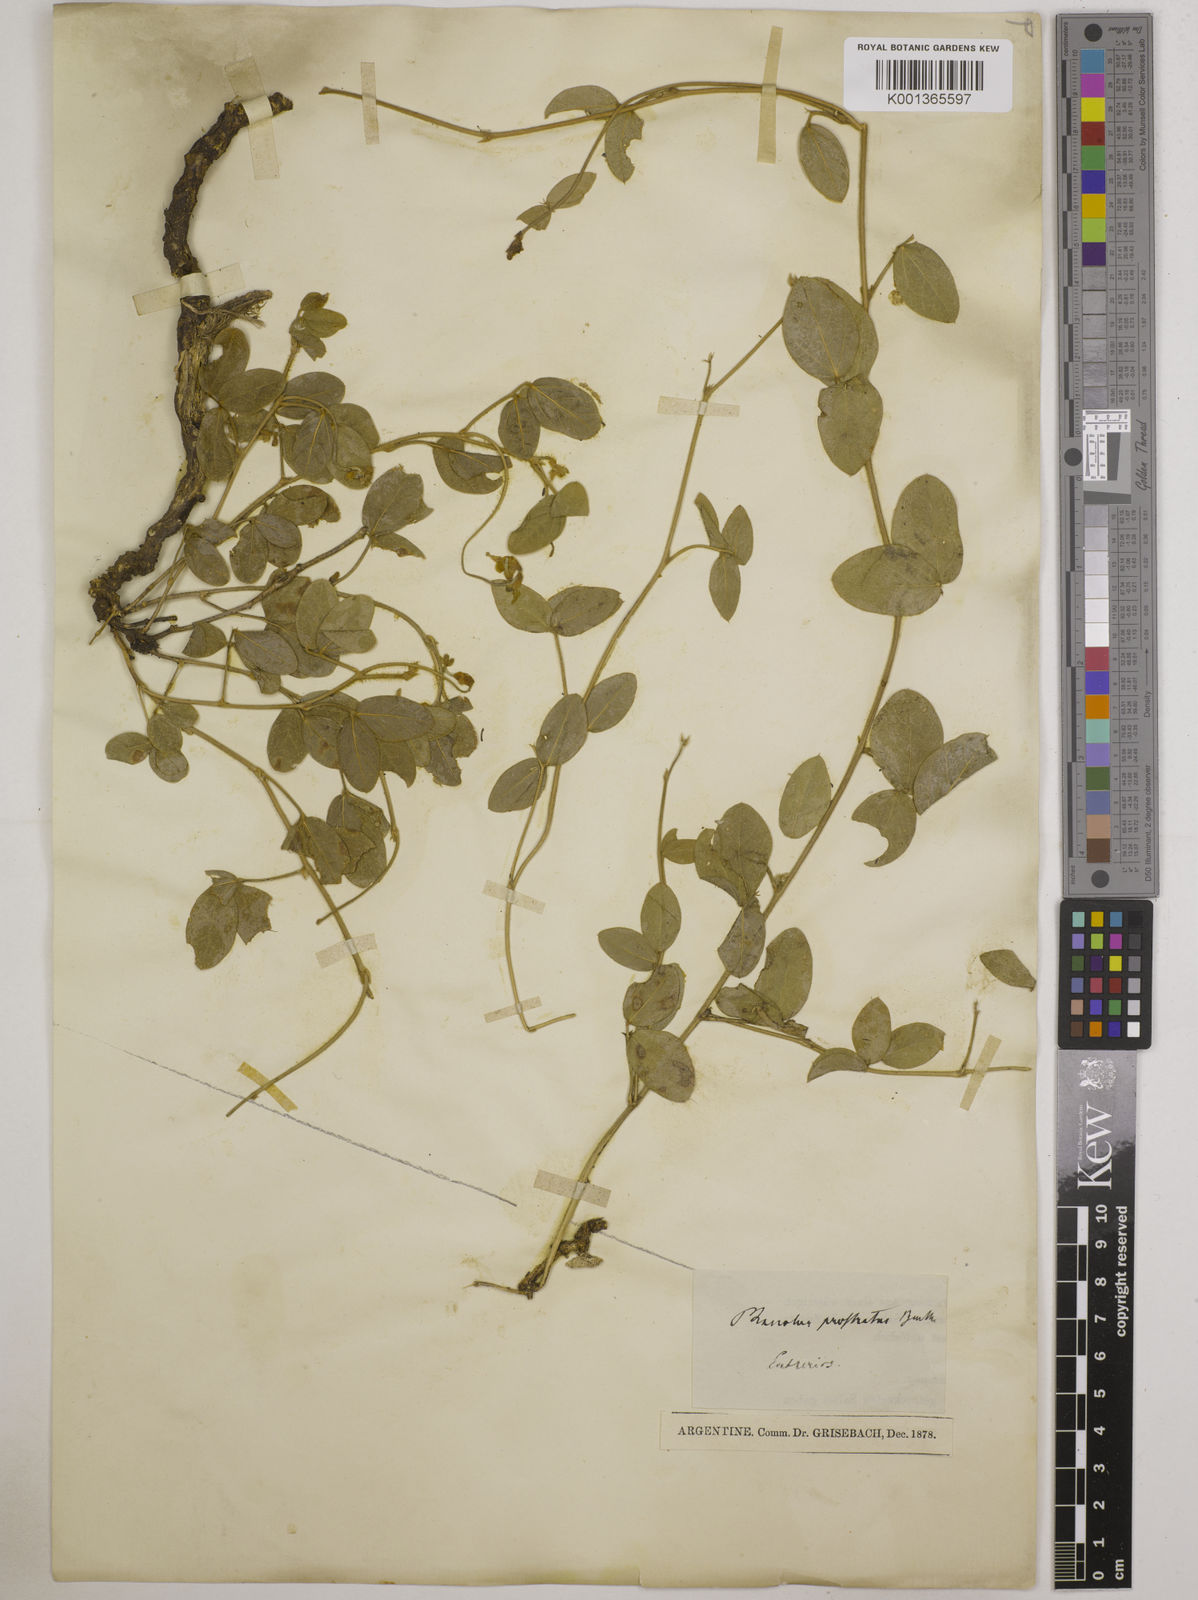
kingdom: Plantae
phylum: Tracheophyta
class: Magnoliopsida
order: Fabales
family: Fabaceae
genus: Macroptilium
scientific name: Macroptilium prostratum
